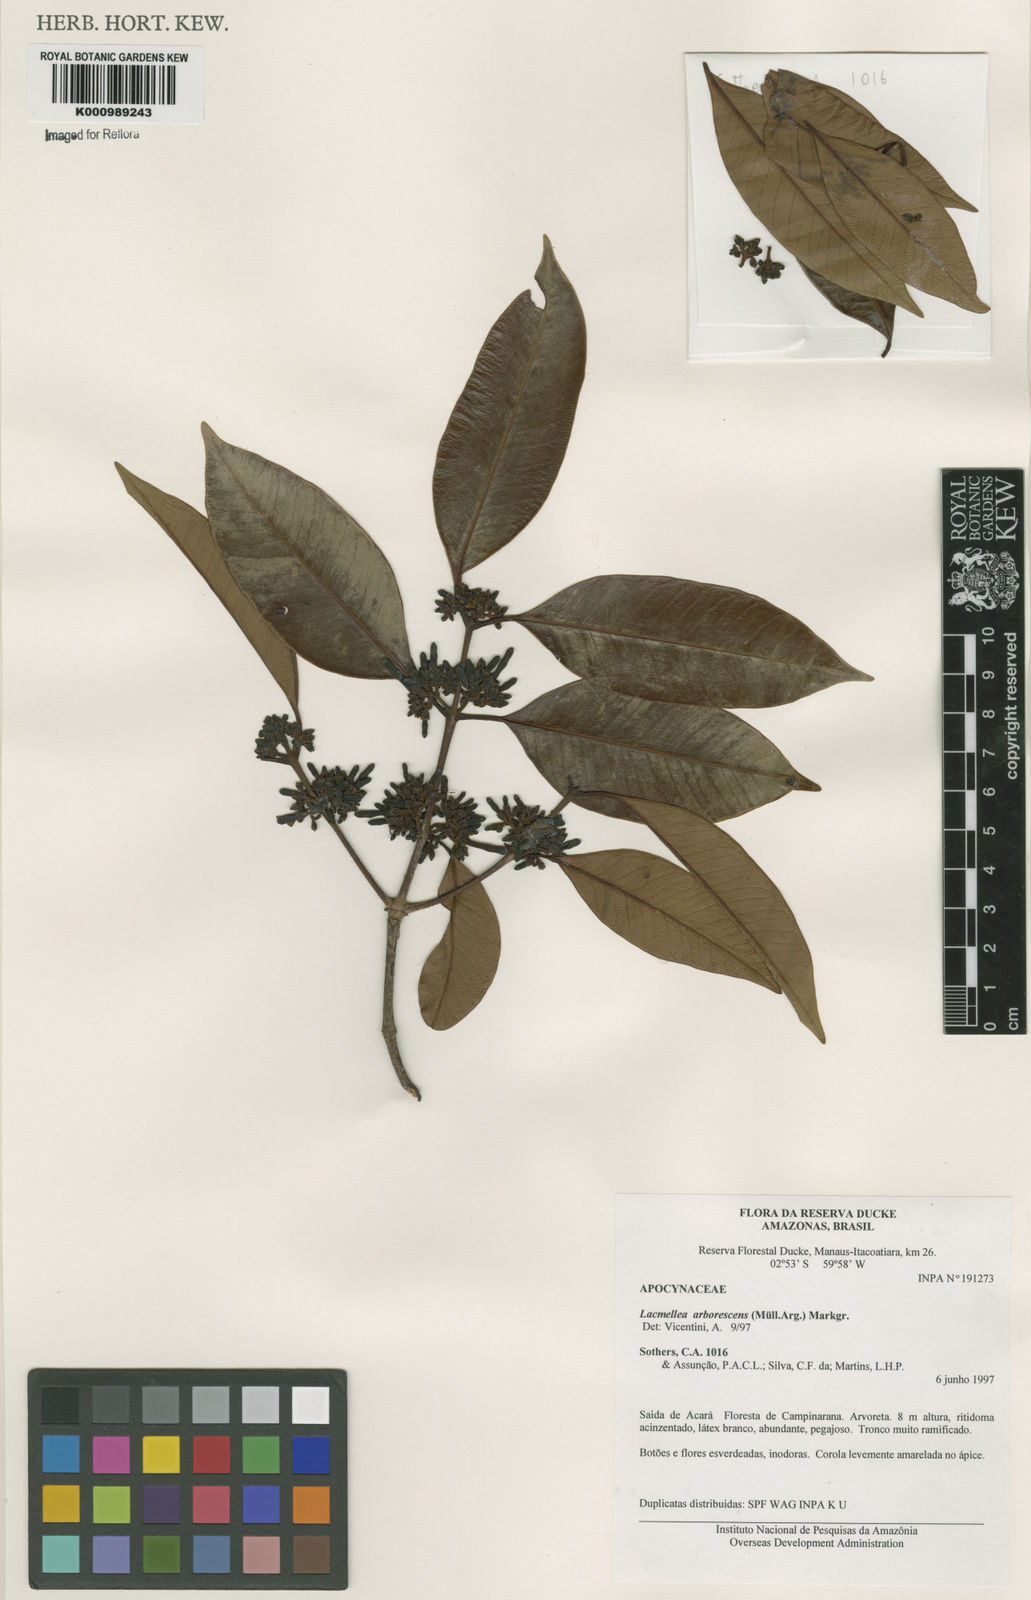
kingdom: Plantae
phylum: Tracheophyta
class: Magnoliopsida
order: Gentianales
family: Apocynaceae
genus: Lacmellea
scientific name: Lacmellea
